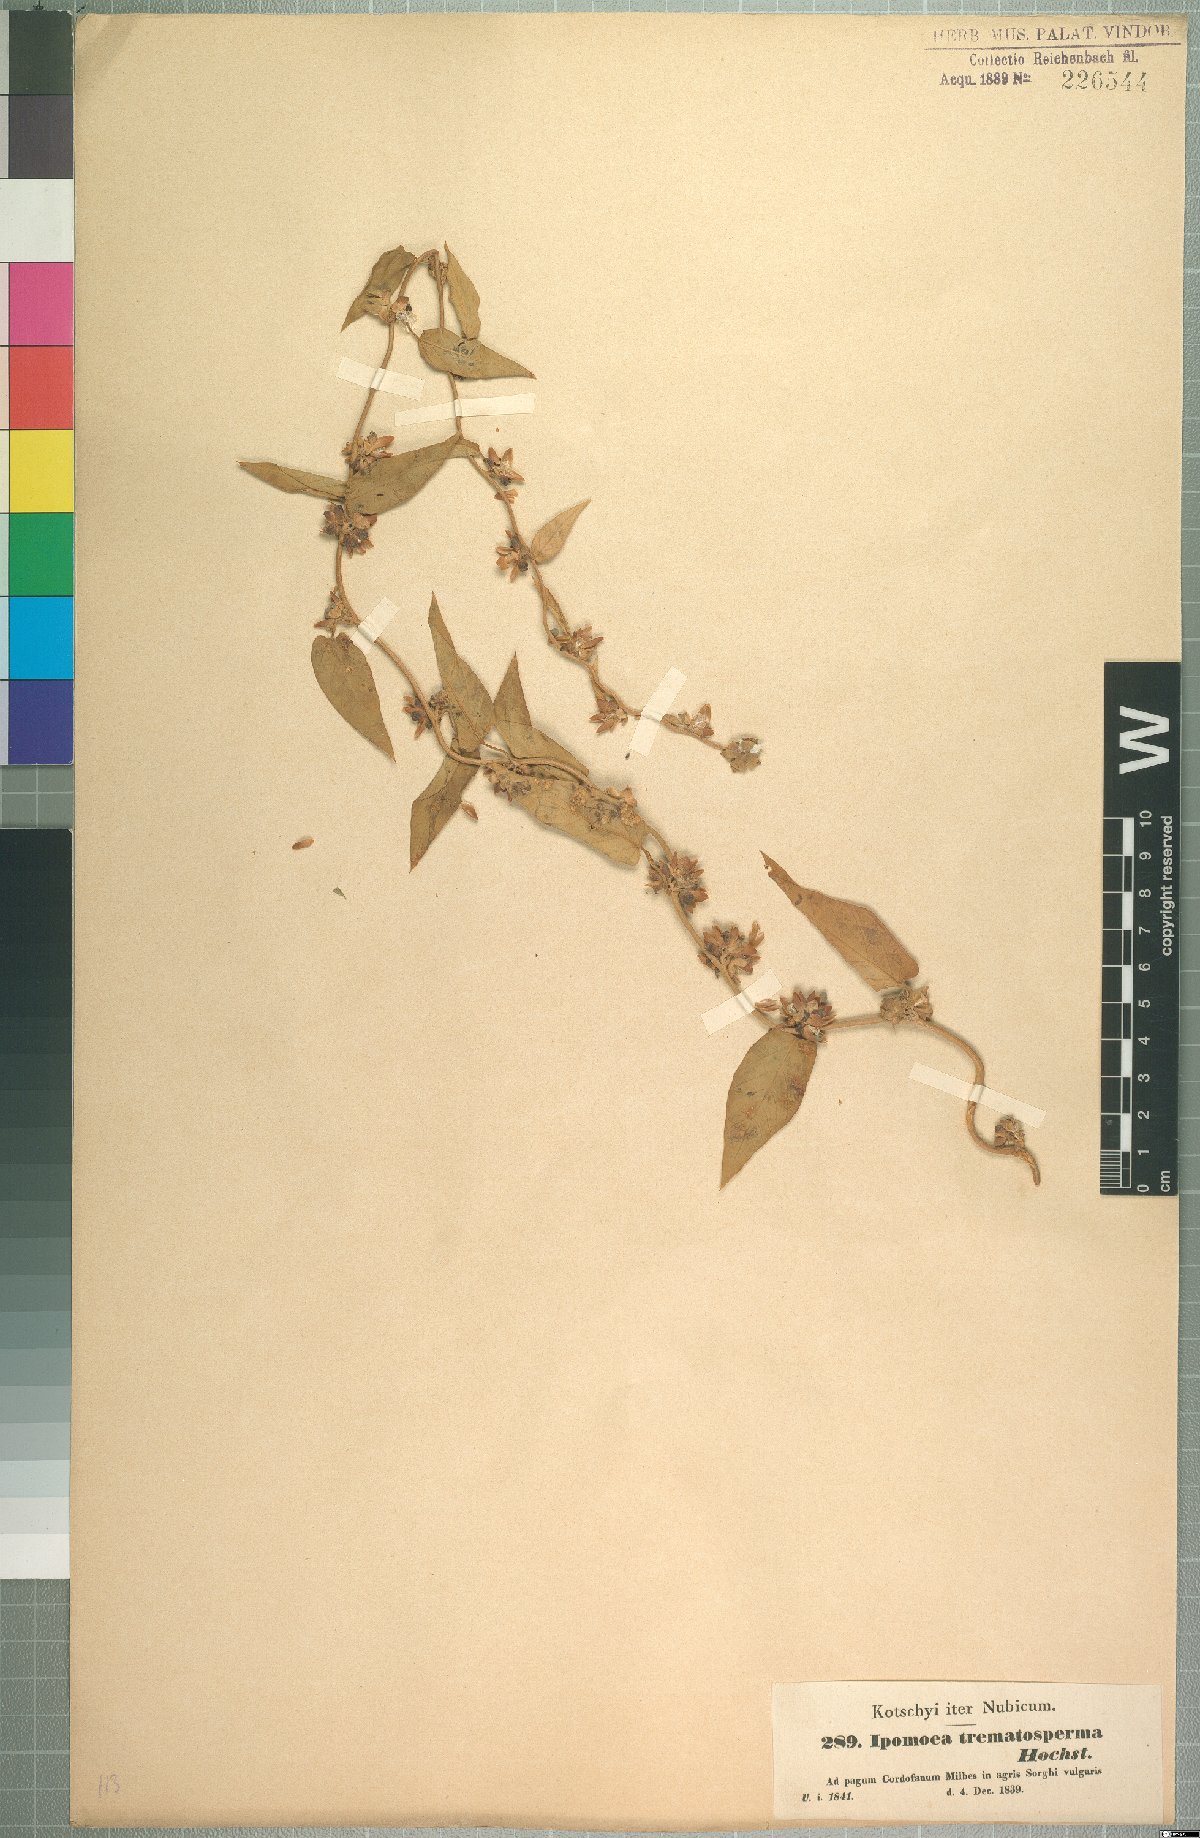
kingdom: Plantae
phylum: Tracheophyta
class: Magnoliopsida
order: Solanales
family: Convolvulaceae
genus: Ipomoea
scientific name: Ipomoea eriocarpa
